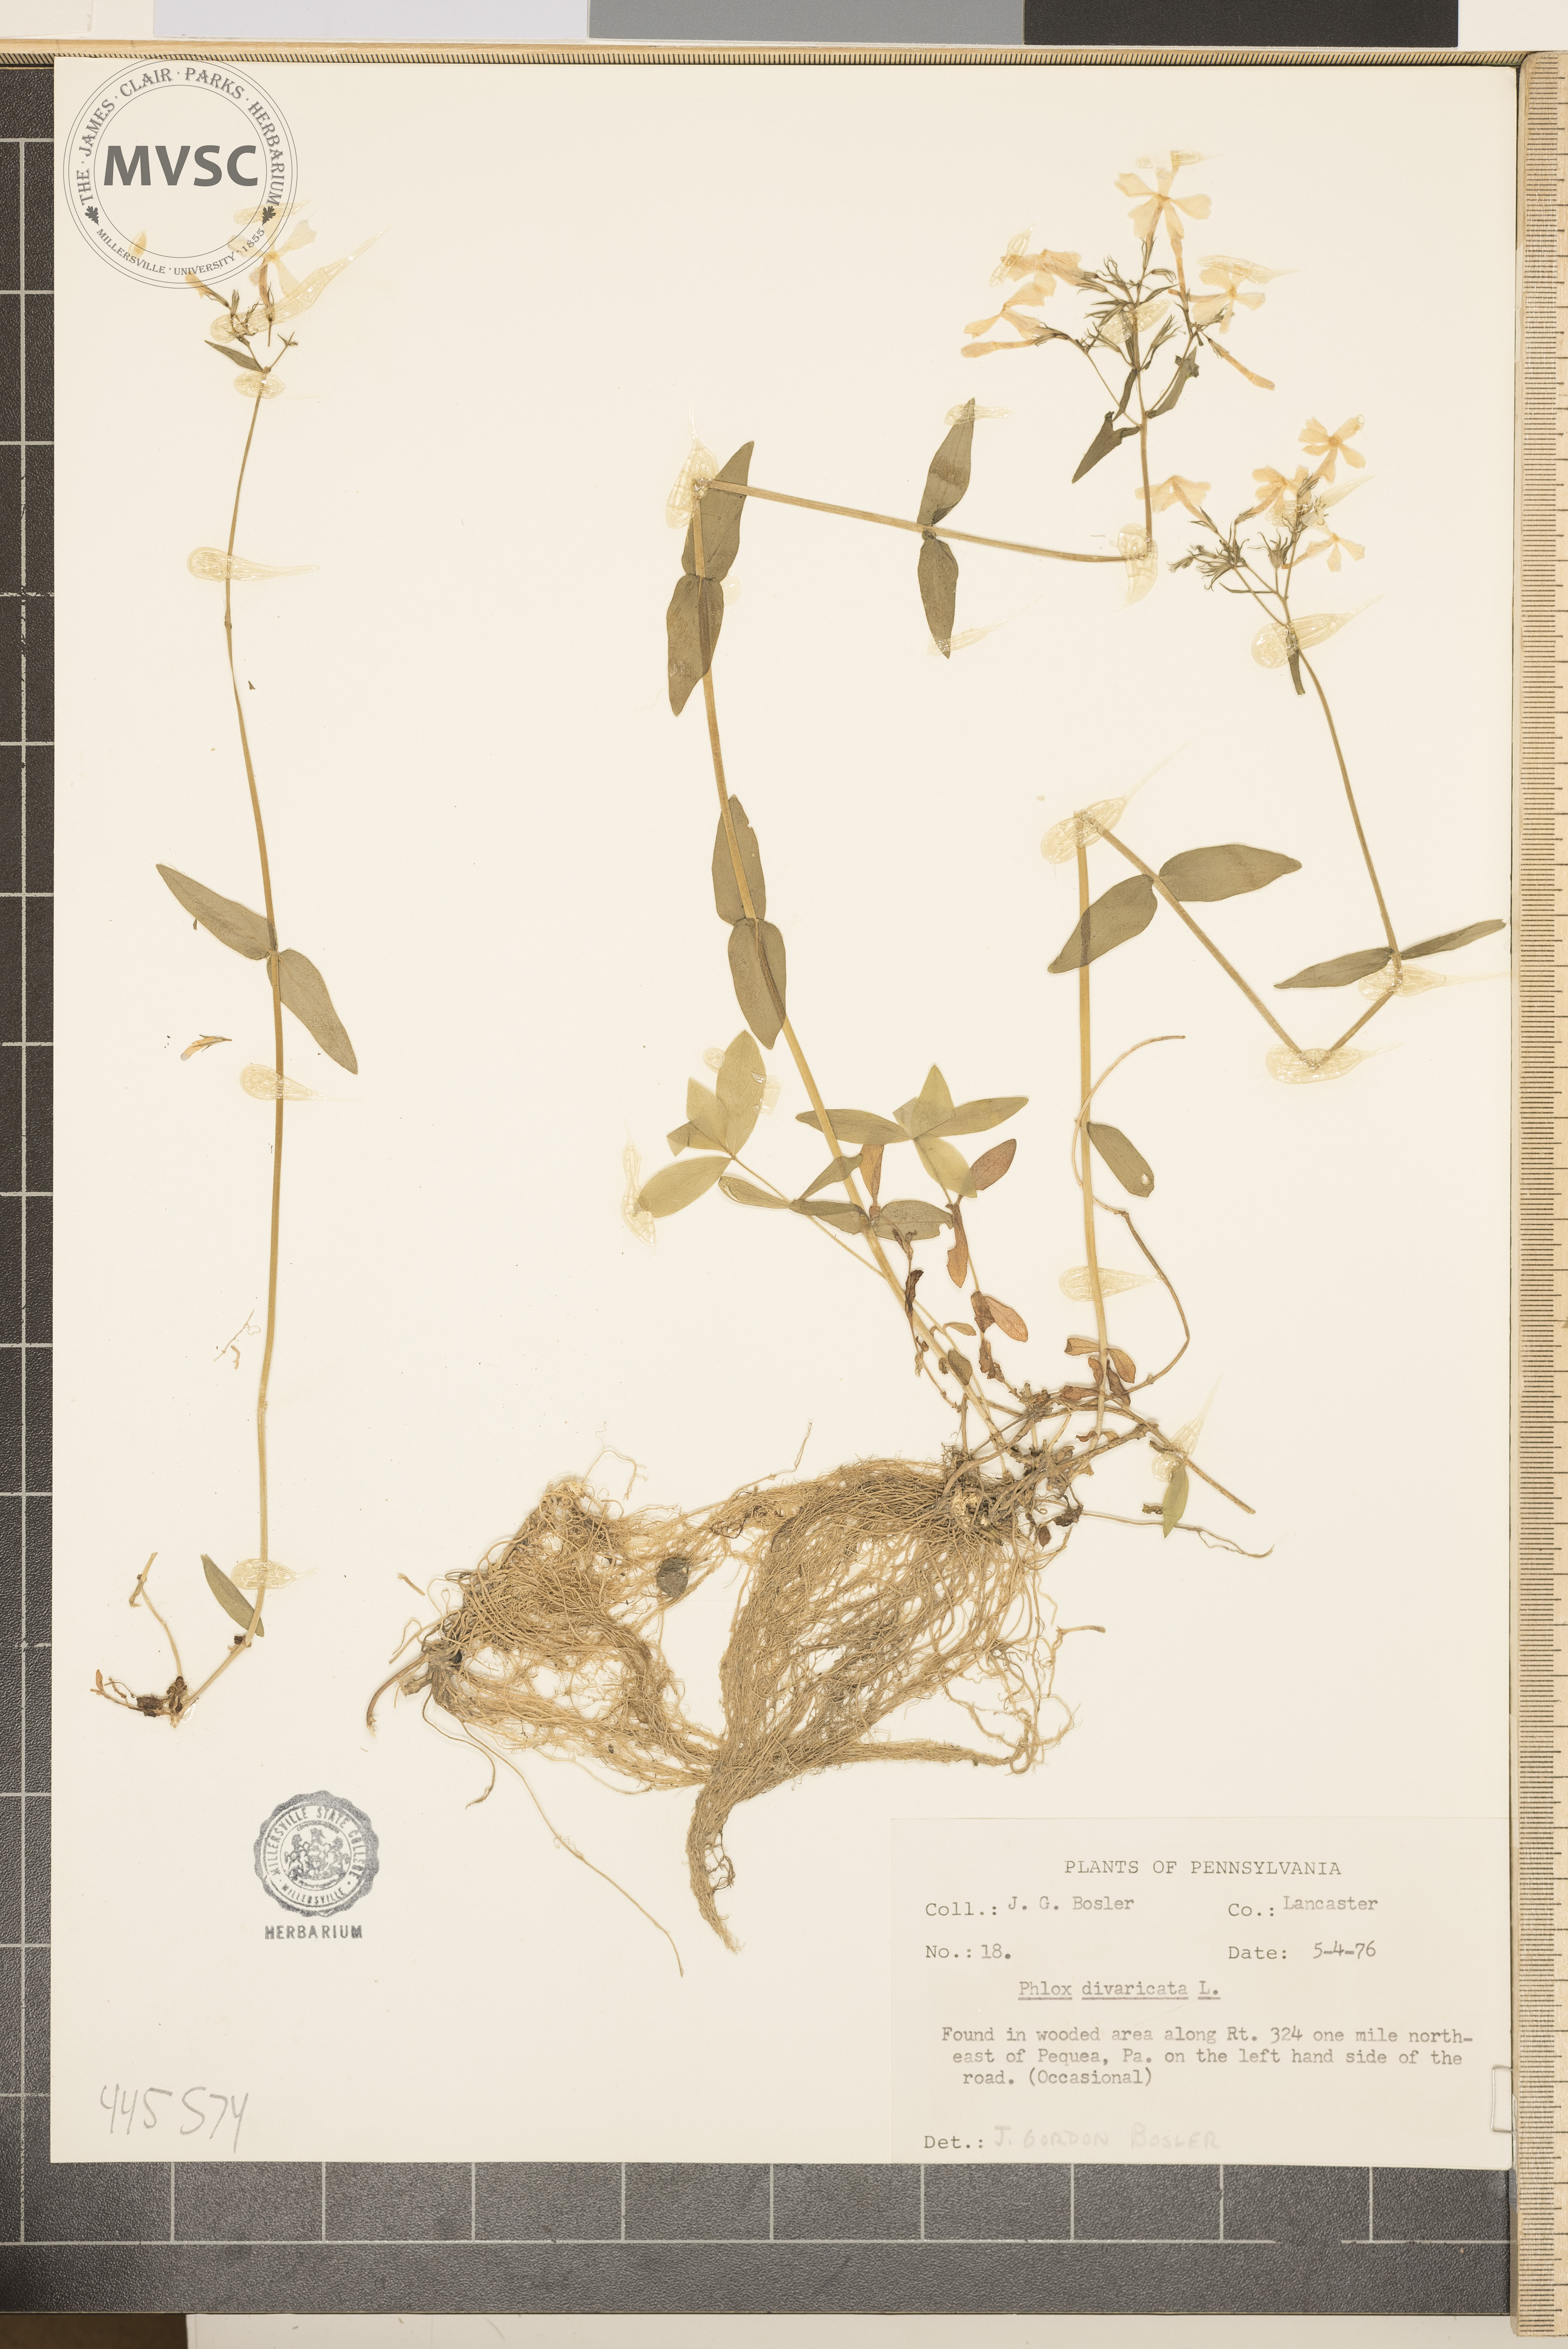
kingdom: Plantae
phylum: Tracheophyta
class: Magnoliopsida
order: Ericales
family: Polemoniaceae
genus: Phlox
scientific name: Phlox divaricata
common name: Blue phlox
